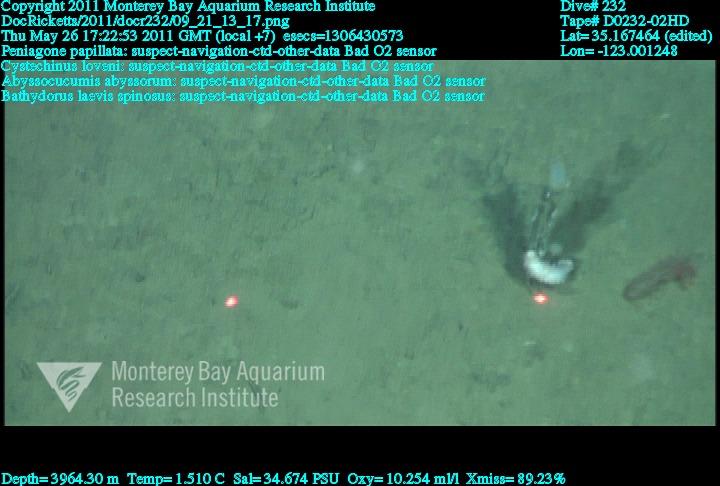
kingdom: Animalia
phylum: Porifera
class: Hexactinellida
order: Lyssacinosida
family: Rossellidae
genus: Bathydorus
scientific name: Bathydorus spinosus
